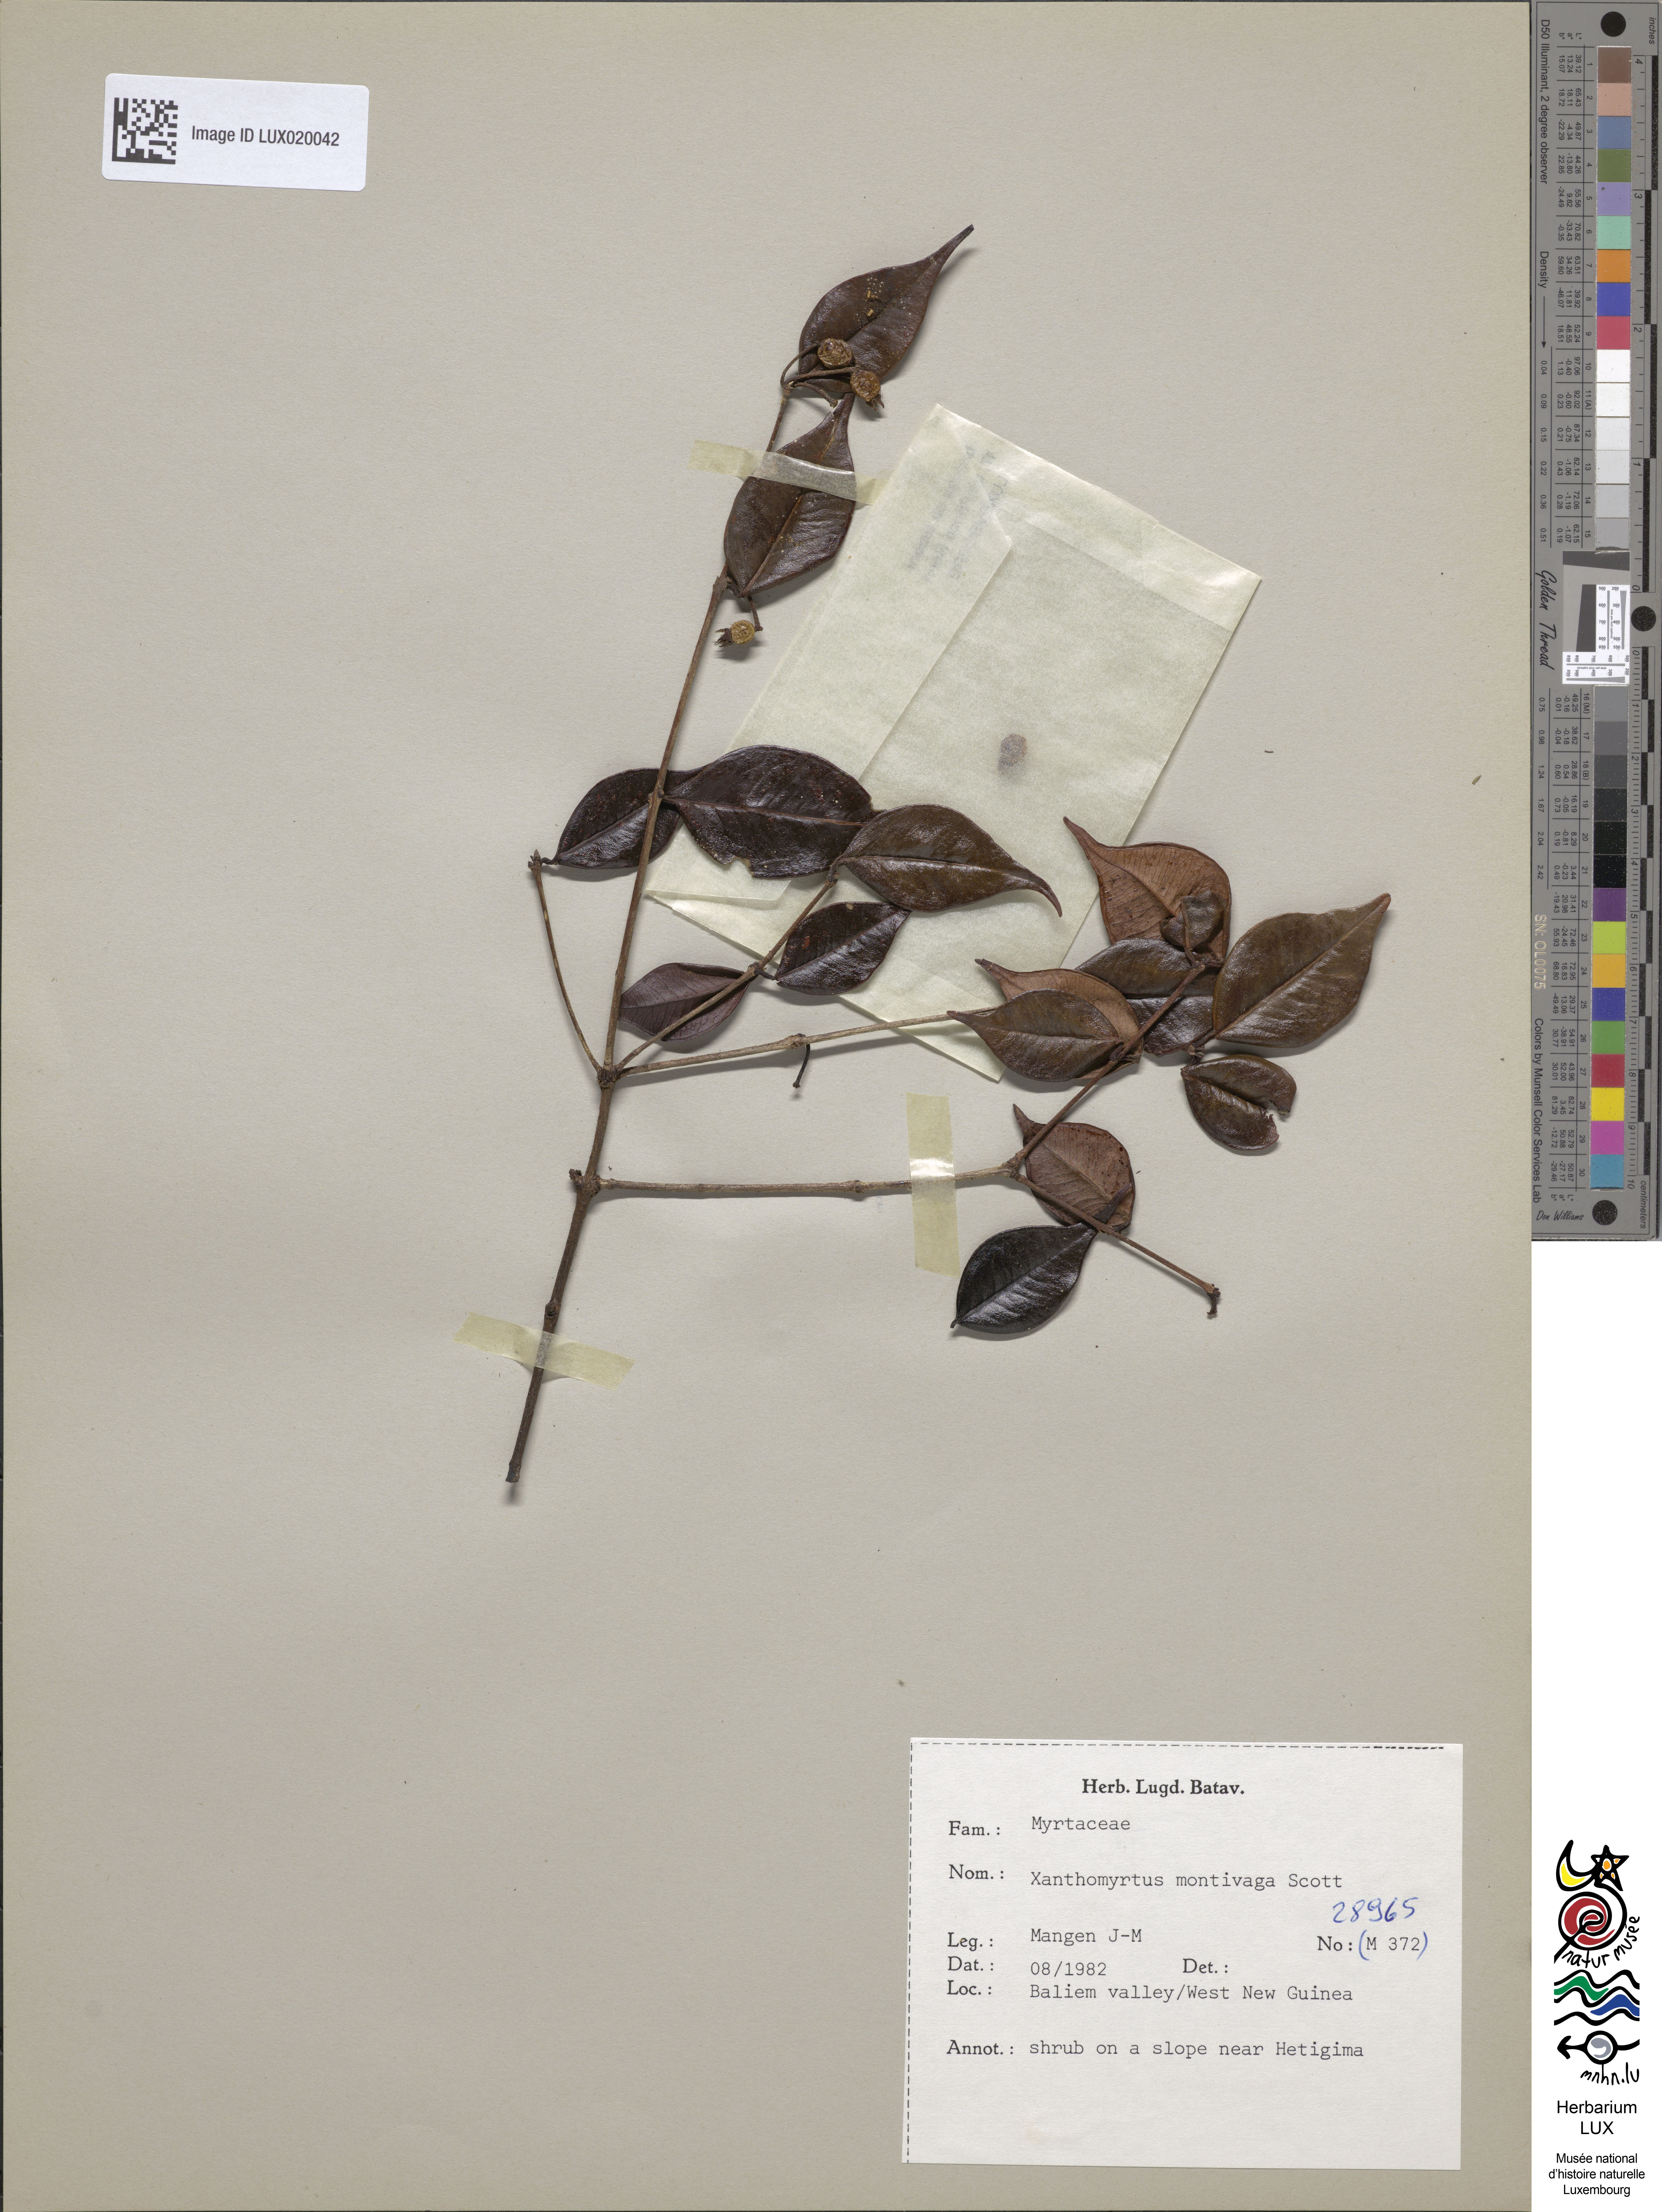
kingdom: Plantae
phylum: Tracheophyta
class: Magnoliopsida
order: Myrtales
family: Myrtaceae
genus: Xanthomyrtus
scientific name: Xanthomyrtus montivaga
